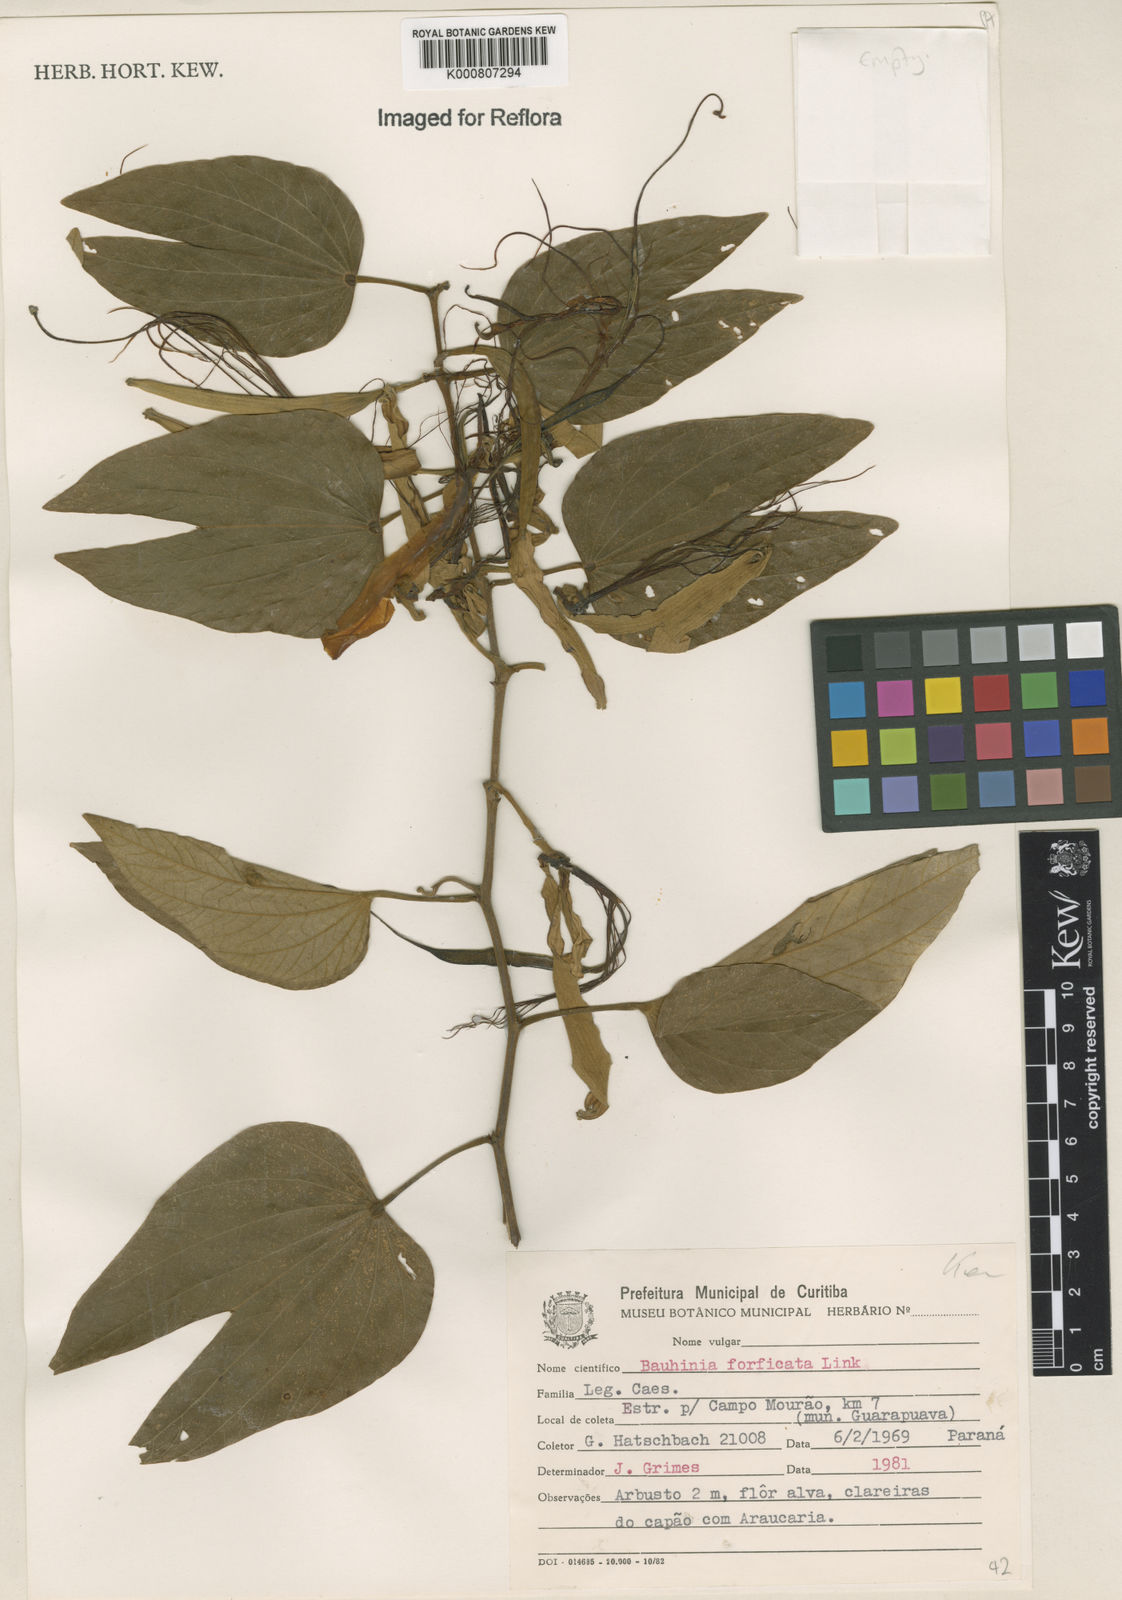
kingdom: Plantae
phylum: Tracheophyta
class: Magnoliopsida
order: Fabales
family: Fabaceae
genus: Bauhinia
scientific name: Bauhinia forficata
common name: Orchid tree
